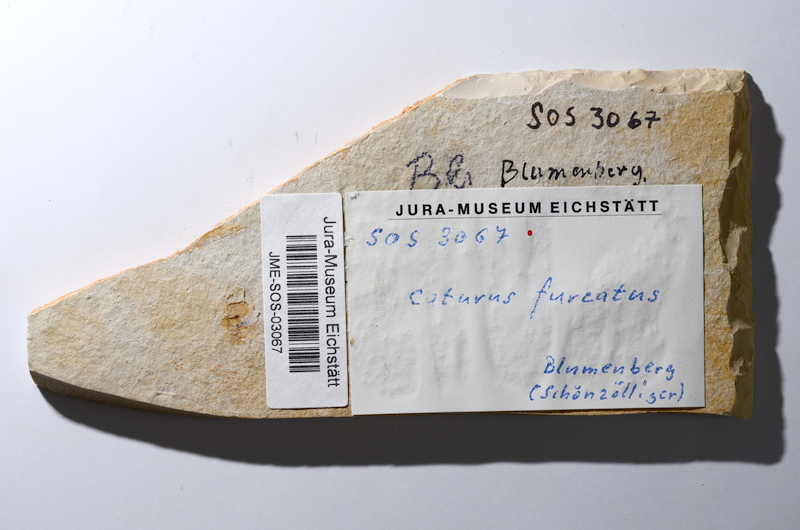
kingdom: Animalia
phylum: Chordata
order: Amiiformes
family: Caturidae
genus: Caturus
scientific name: Caturus furcatus
